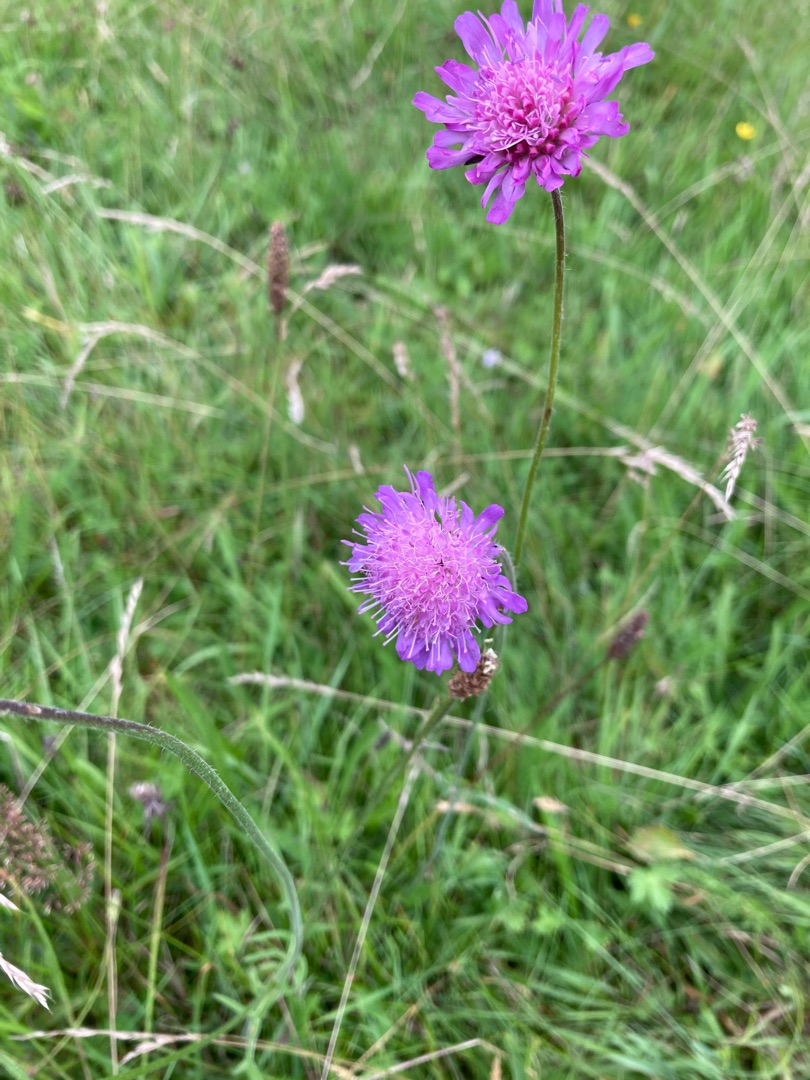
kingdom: Plantae
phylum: Tracheophyta
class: Magnoliopsida
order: Dipsacales
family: Caprifoliaceae
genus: Knautia
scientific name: Knautia arvensis
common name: Blåhat
